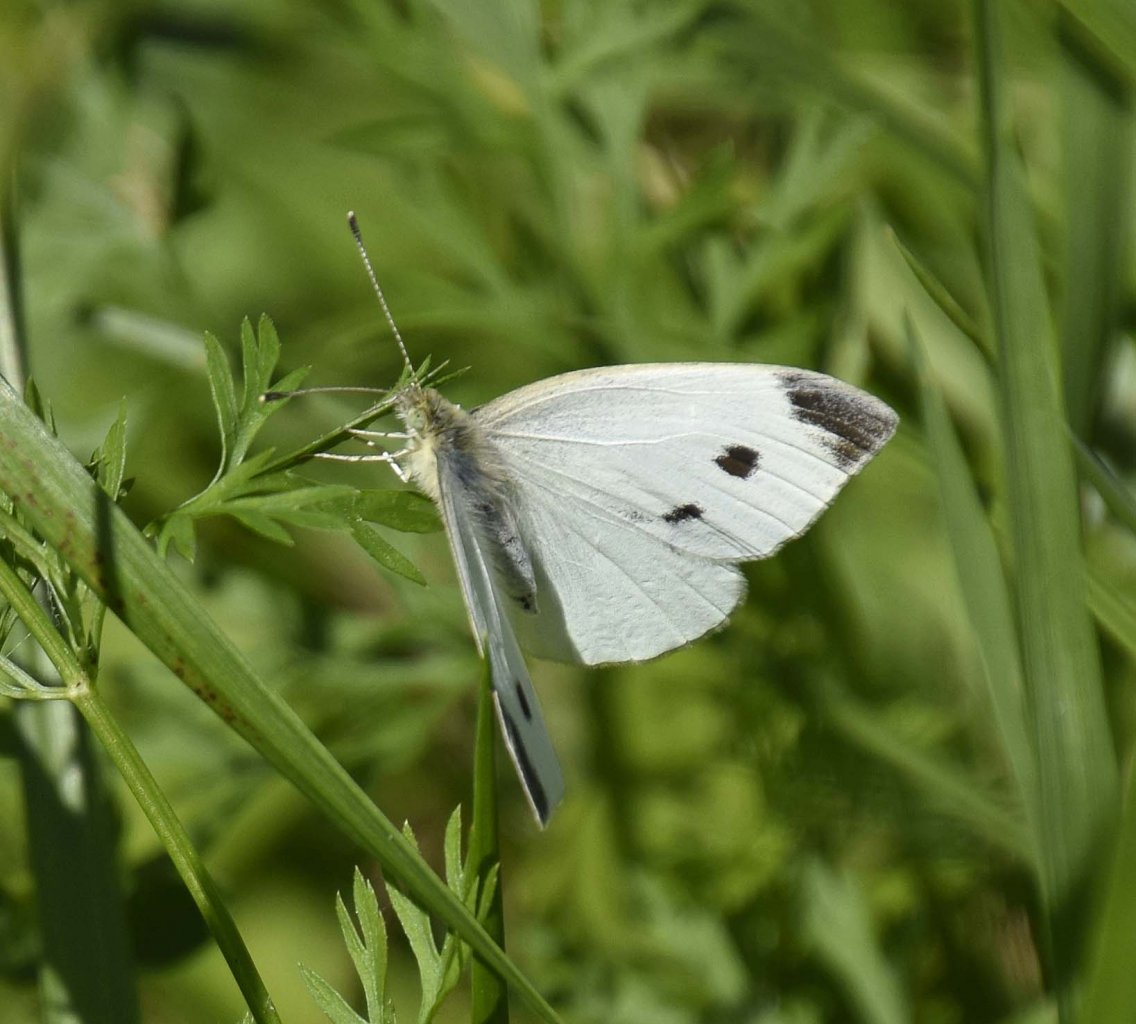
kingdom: Animalia
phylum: Arthropoda
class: Insecta
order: Lepidoptera
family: Pieridae
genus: Pieris
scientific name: Pieris rapae
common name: Cabbage White
